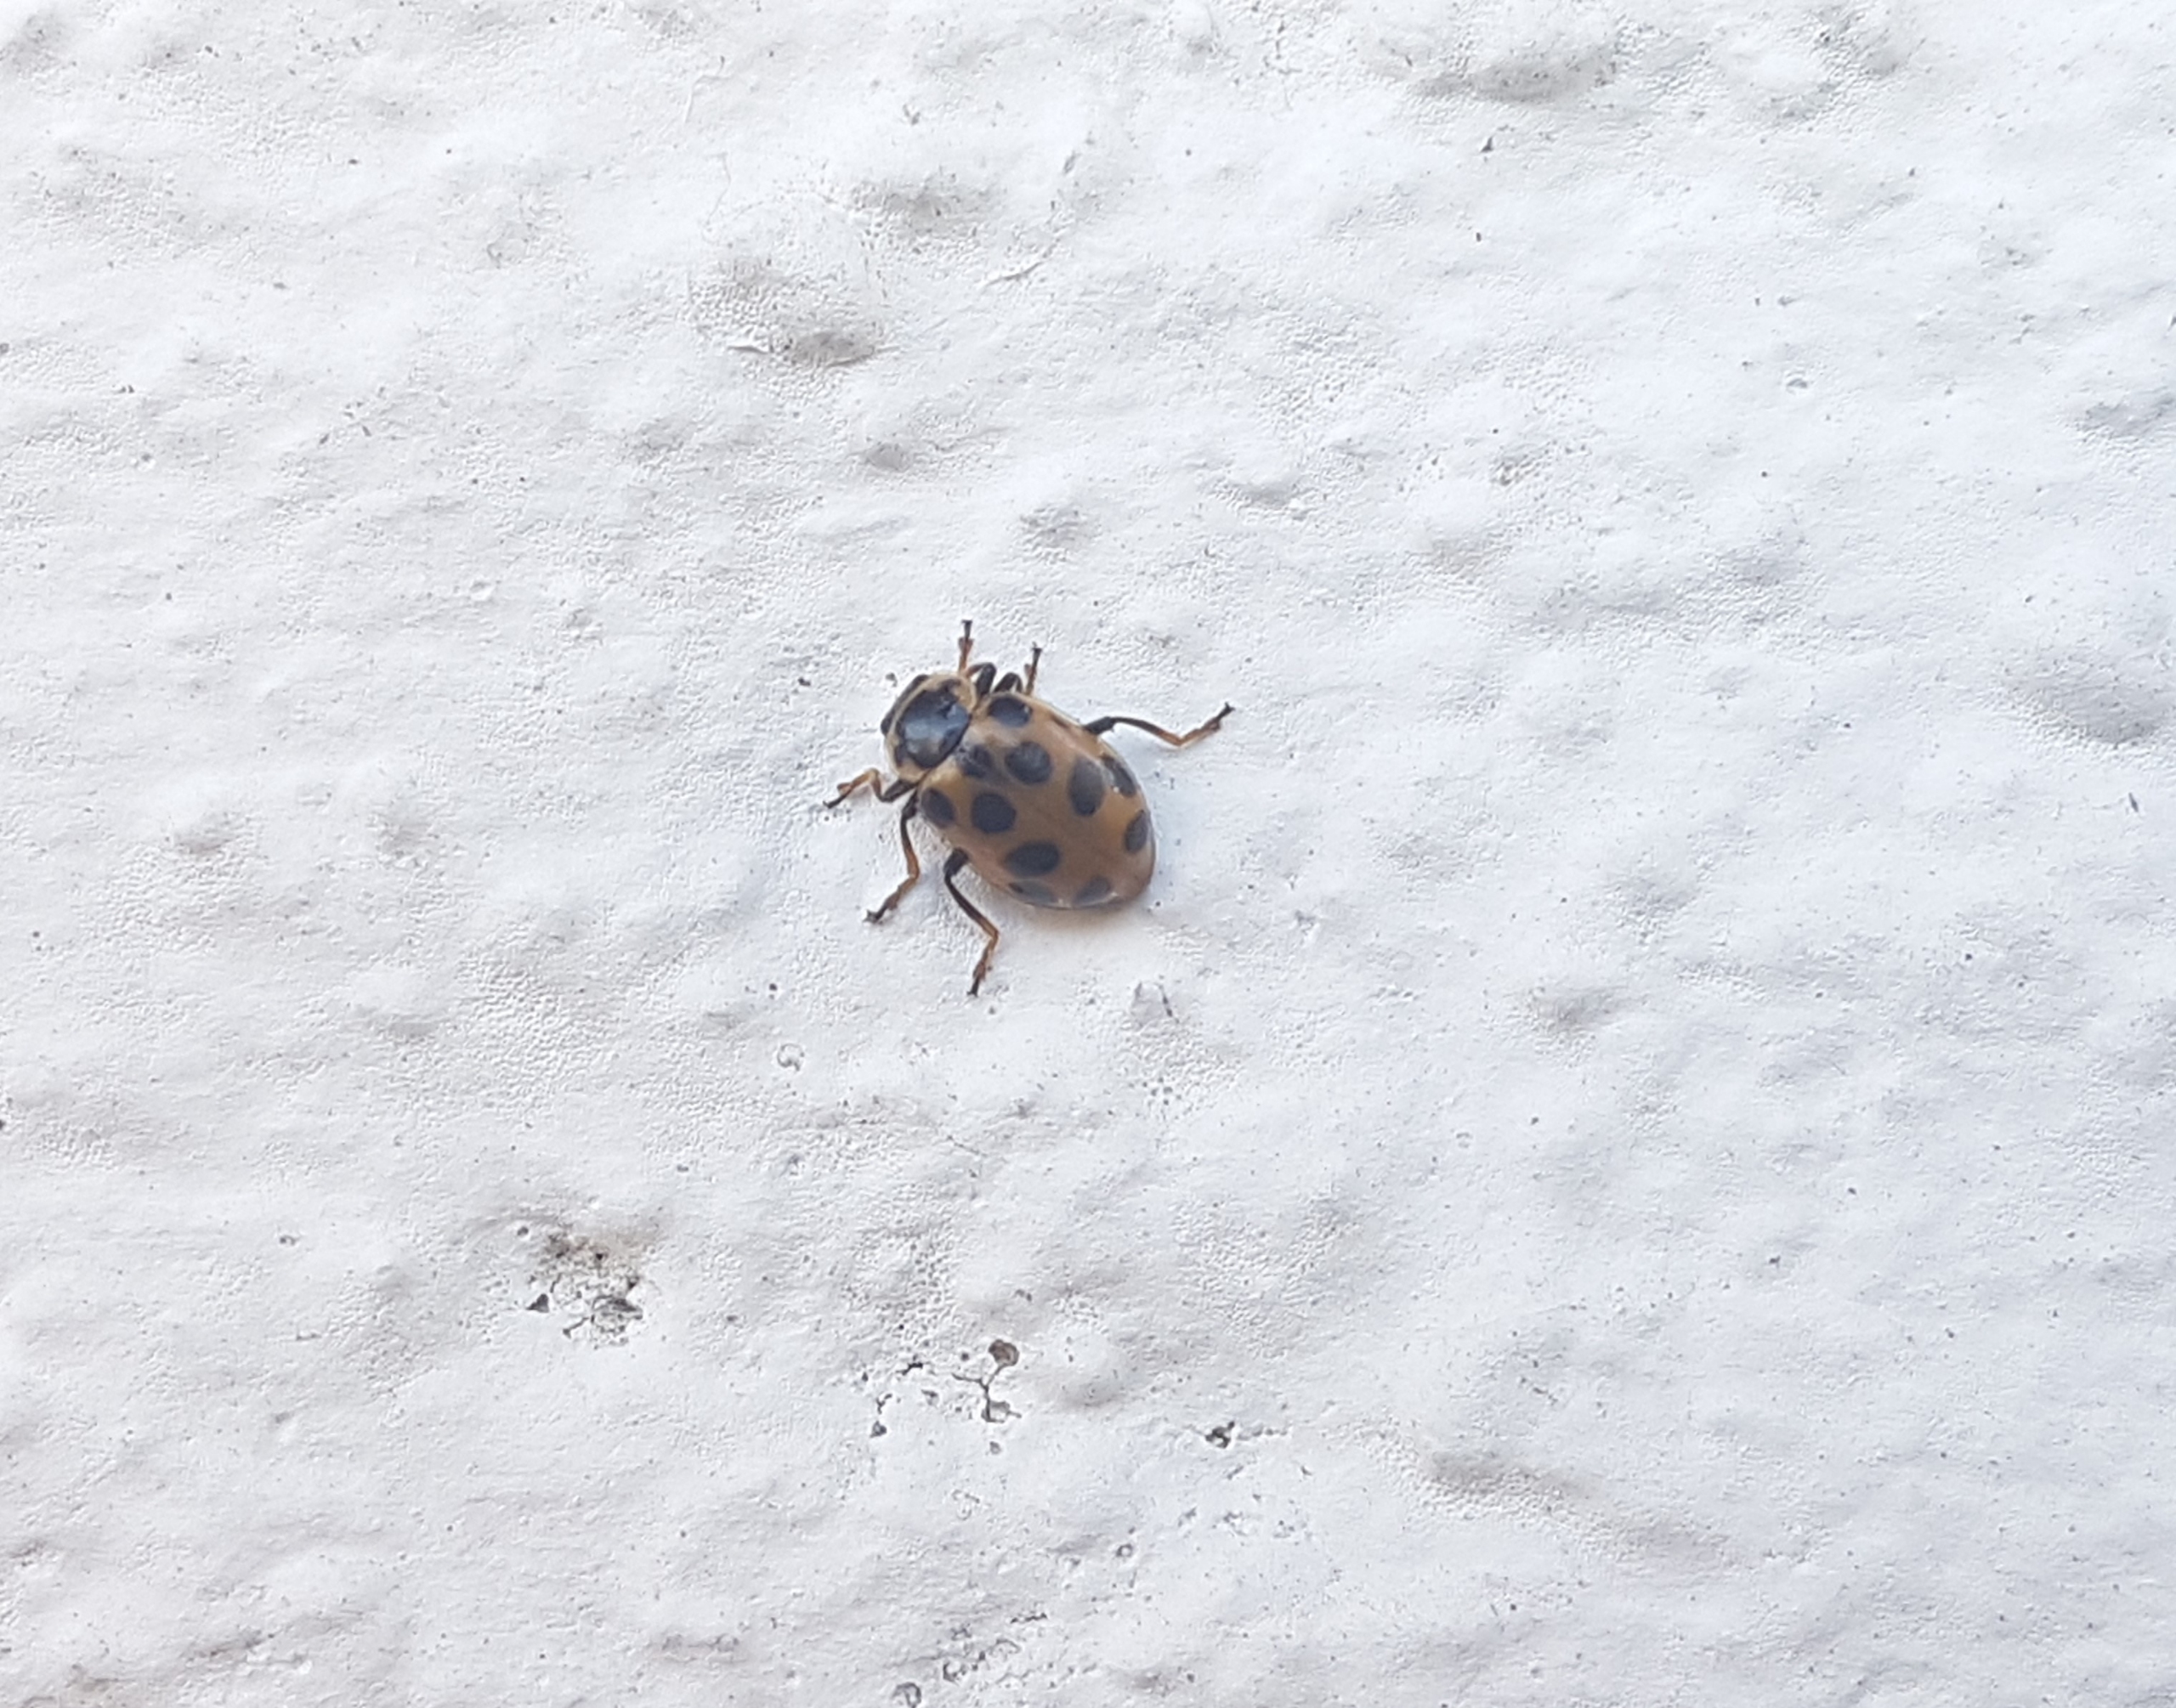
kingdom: Animalia
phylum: Arthropoda
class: Insecta
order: Coleoptera
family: Coccinellidae
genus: Hippodamia
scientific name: Hippodamia tredecimpunctata
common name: Trettenplettet mariehøne
